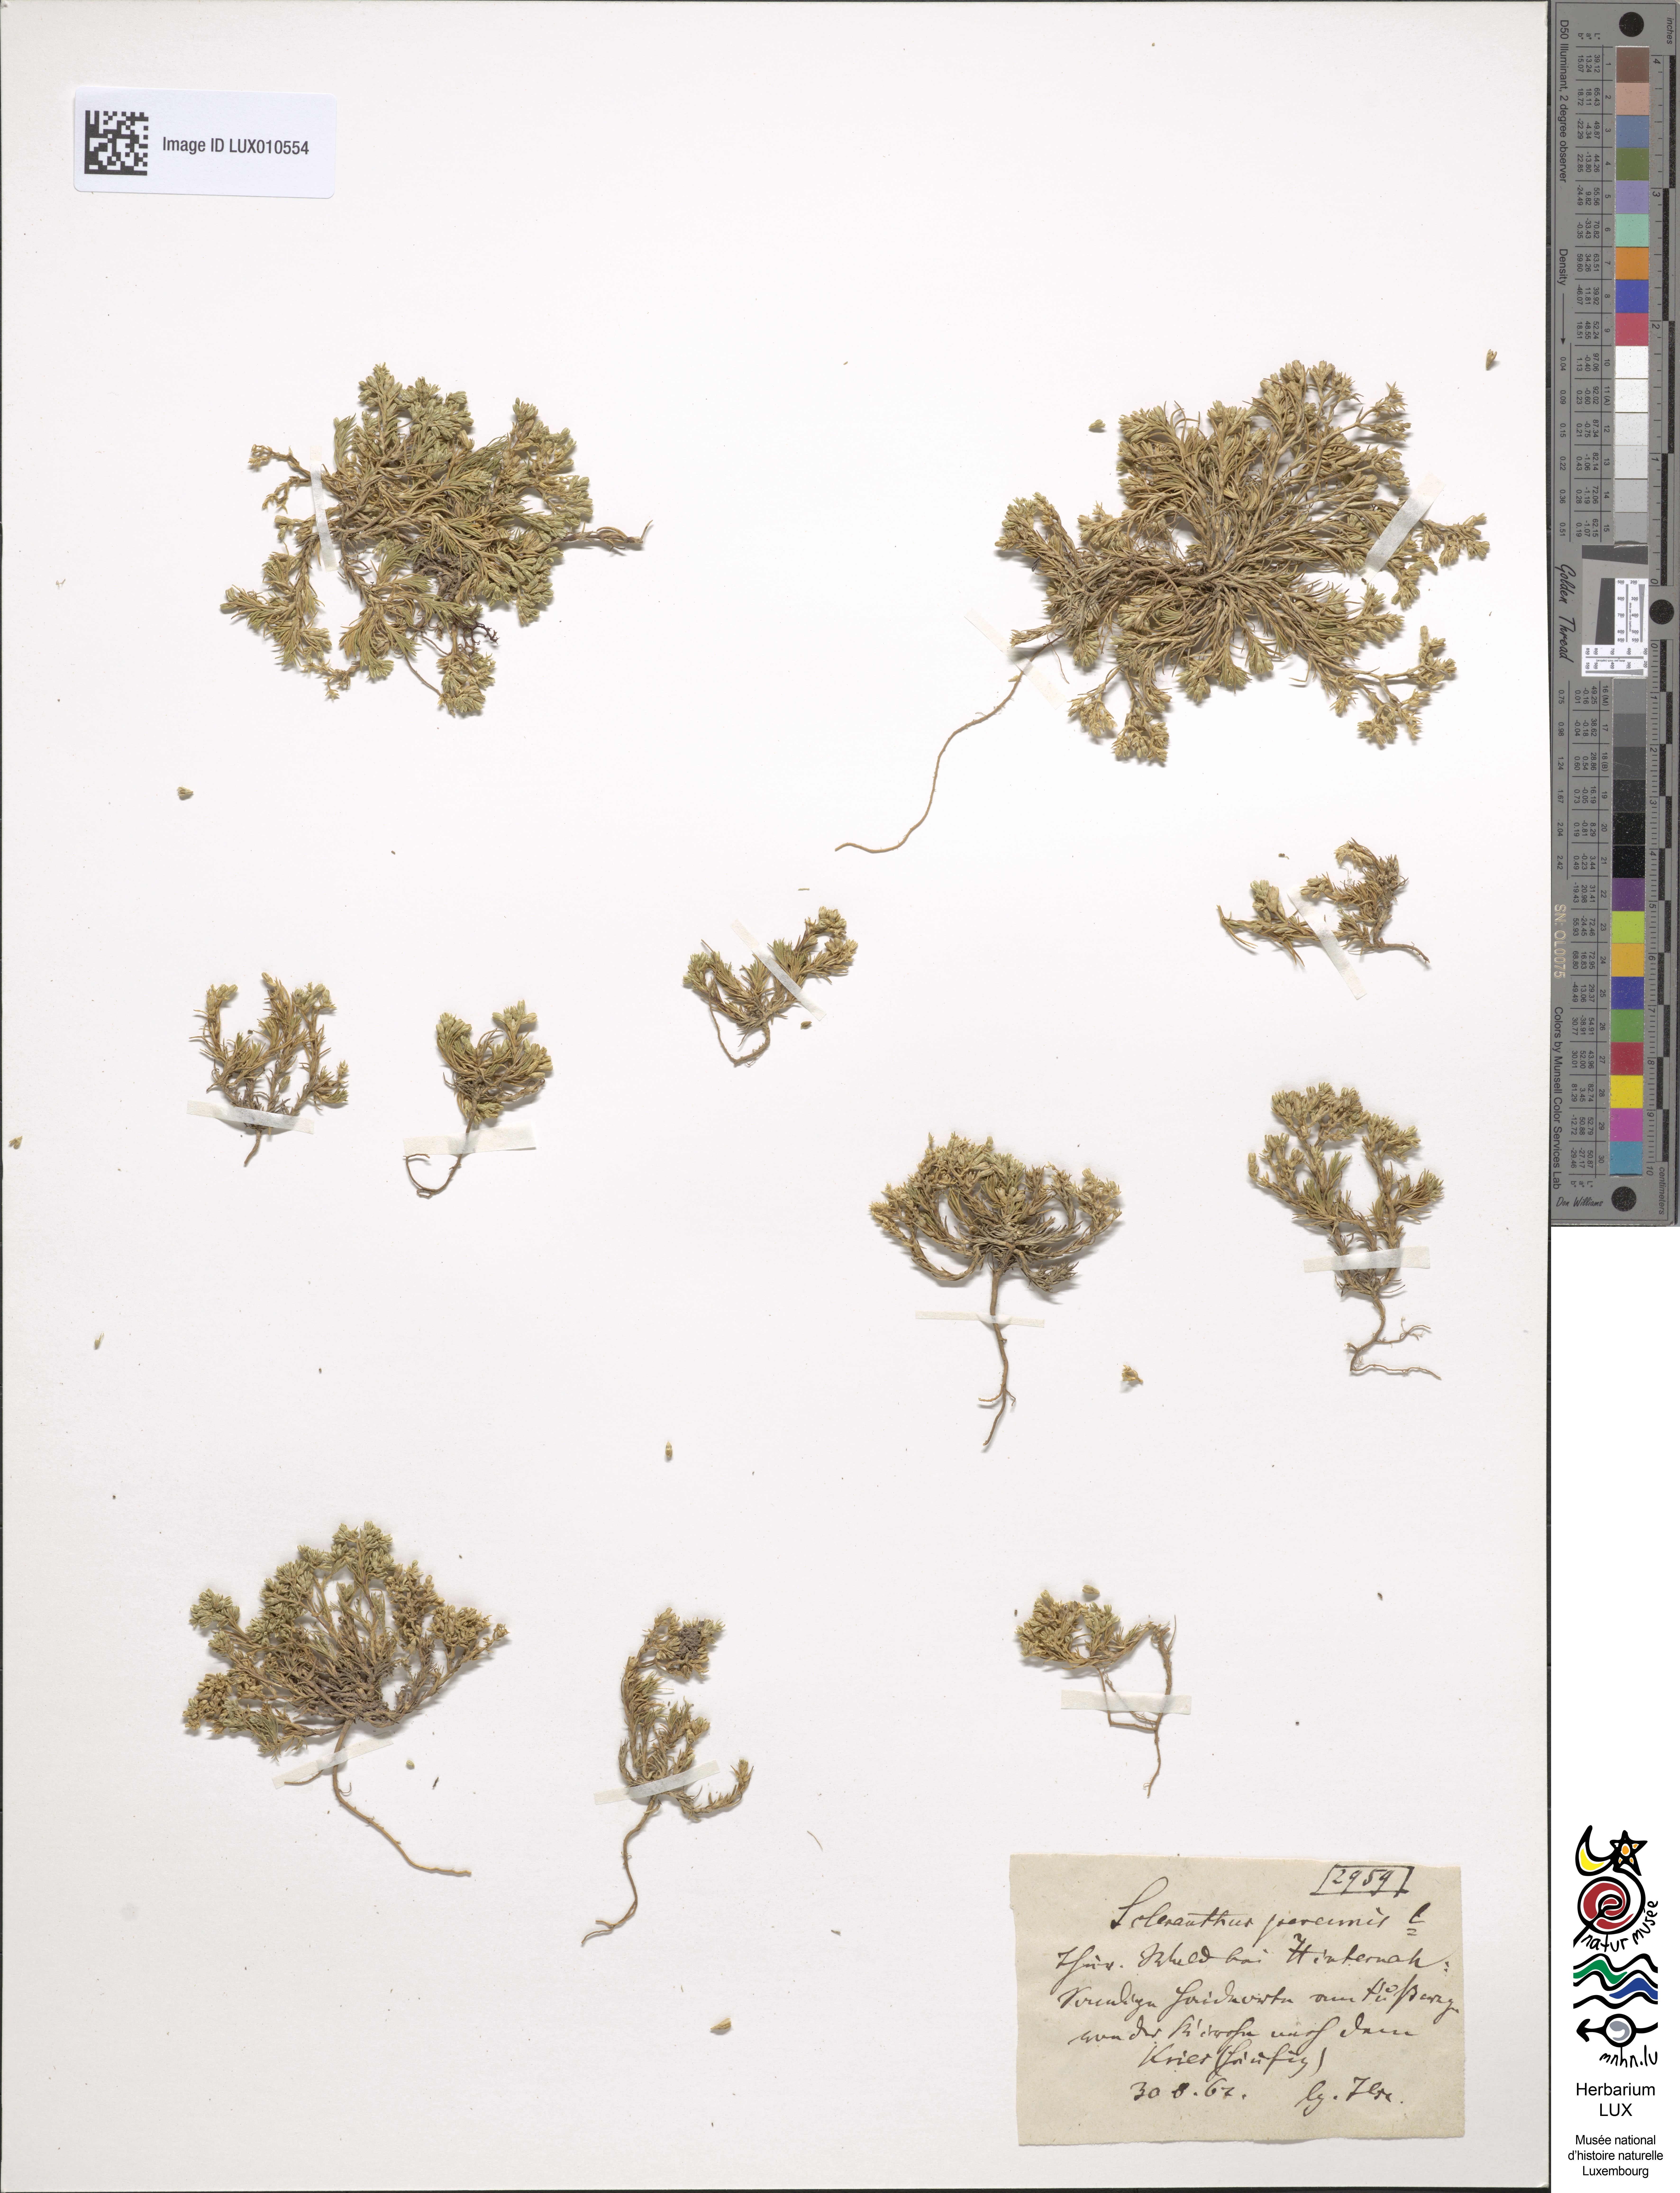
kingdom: Plantae
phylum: Tracheophyta
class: Magnoliopsida
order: Caryophyllales
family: Caryophyllaceae
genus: Scleranthus
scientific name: Scleranthus perennis
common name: Perennial knawel
